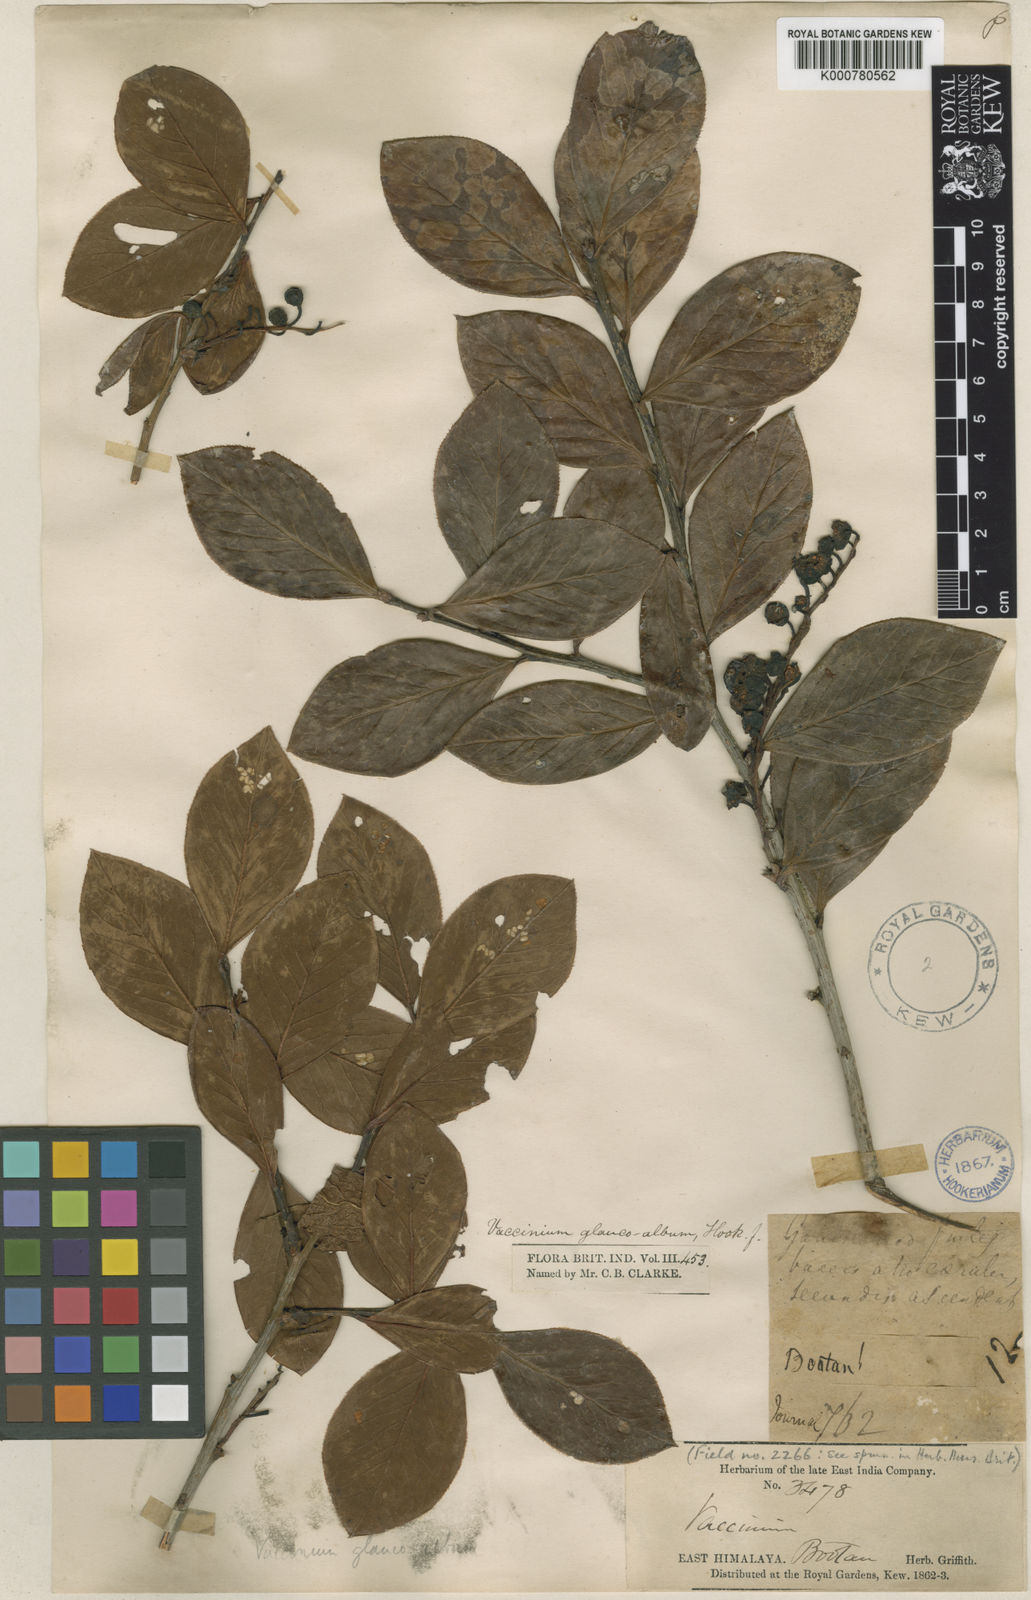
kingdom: Plantae
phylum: Tracheophyta
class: Magnoliopsida
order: Ericales
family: Ericaceae
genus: Vaccinium
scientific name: Vaccinium glaucoalbum
